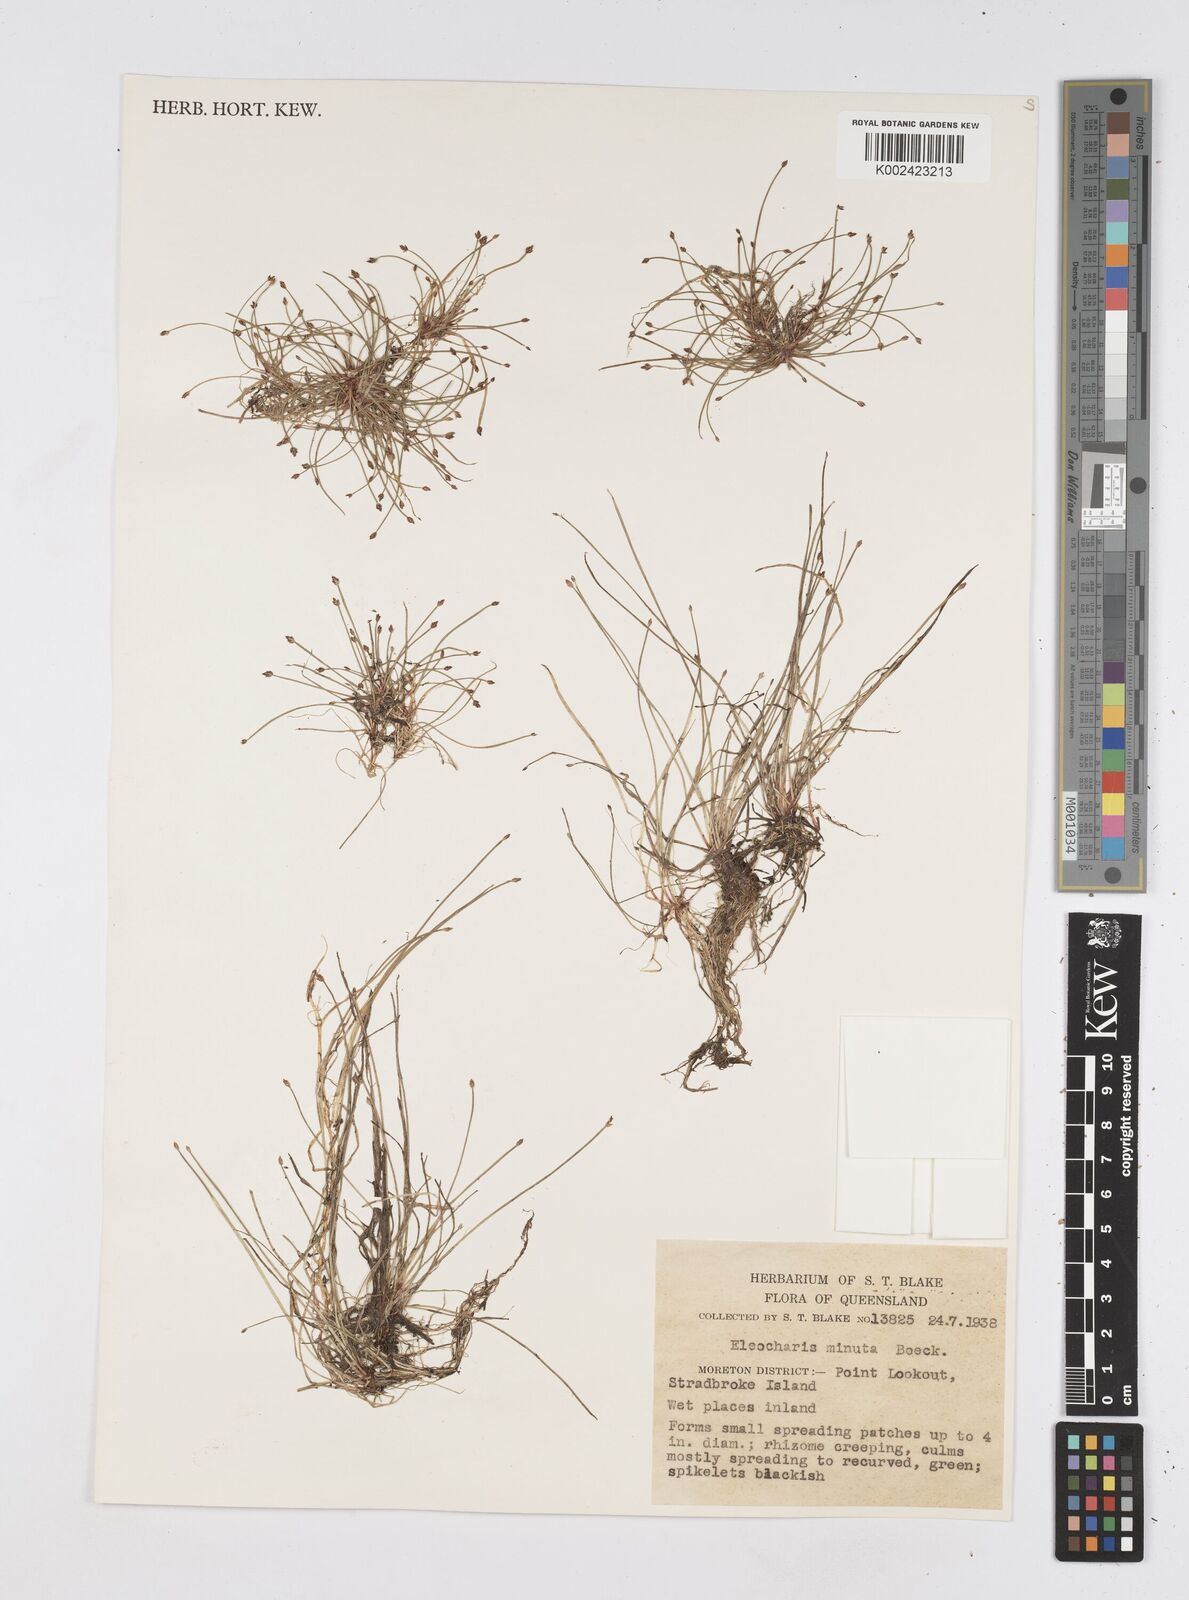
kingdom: Plantae
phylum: Tracheophyta
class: Liliopsida
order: Poales
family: Cyperaceae
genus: Eleocharis
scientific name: Eleocharis minuta
